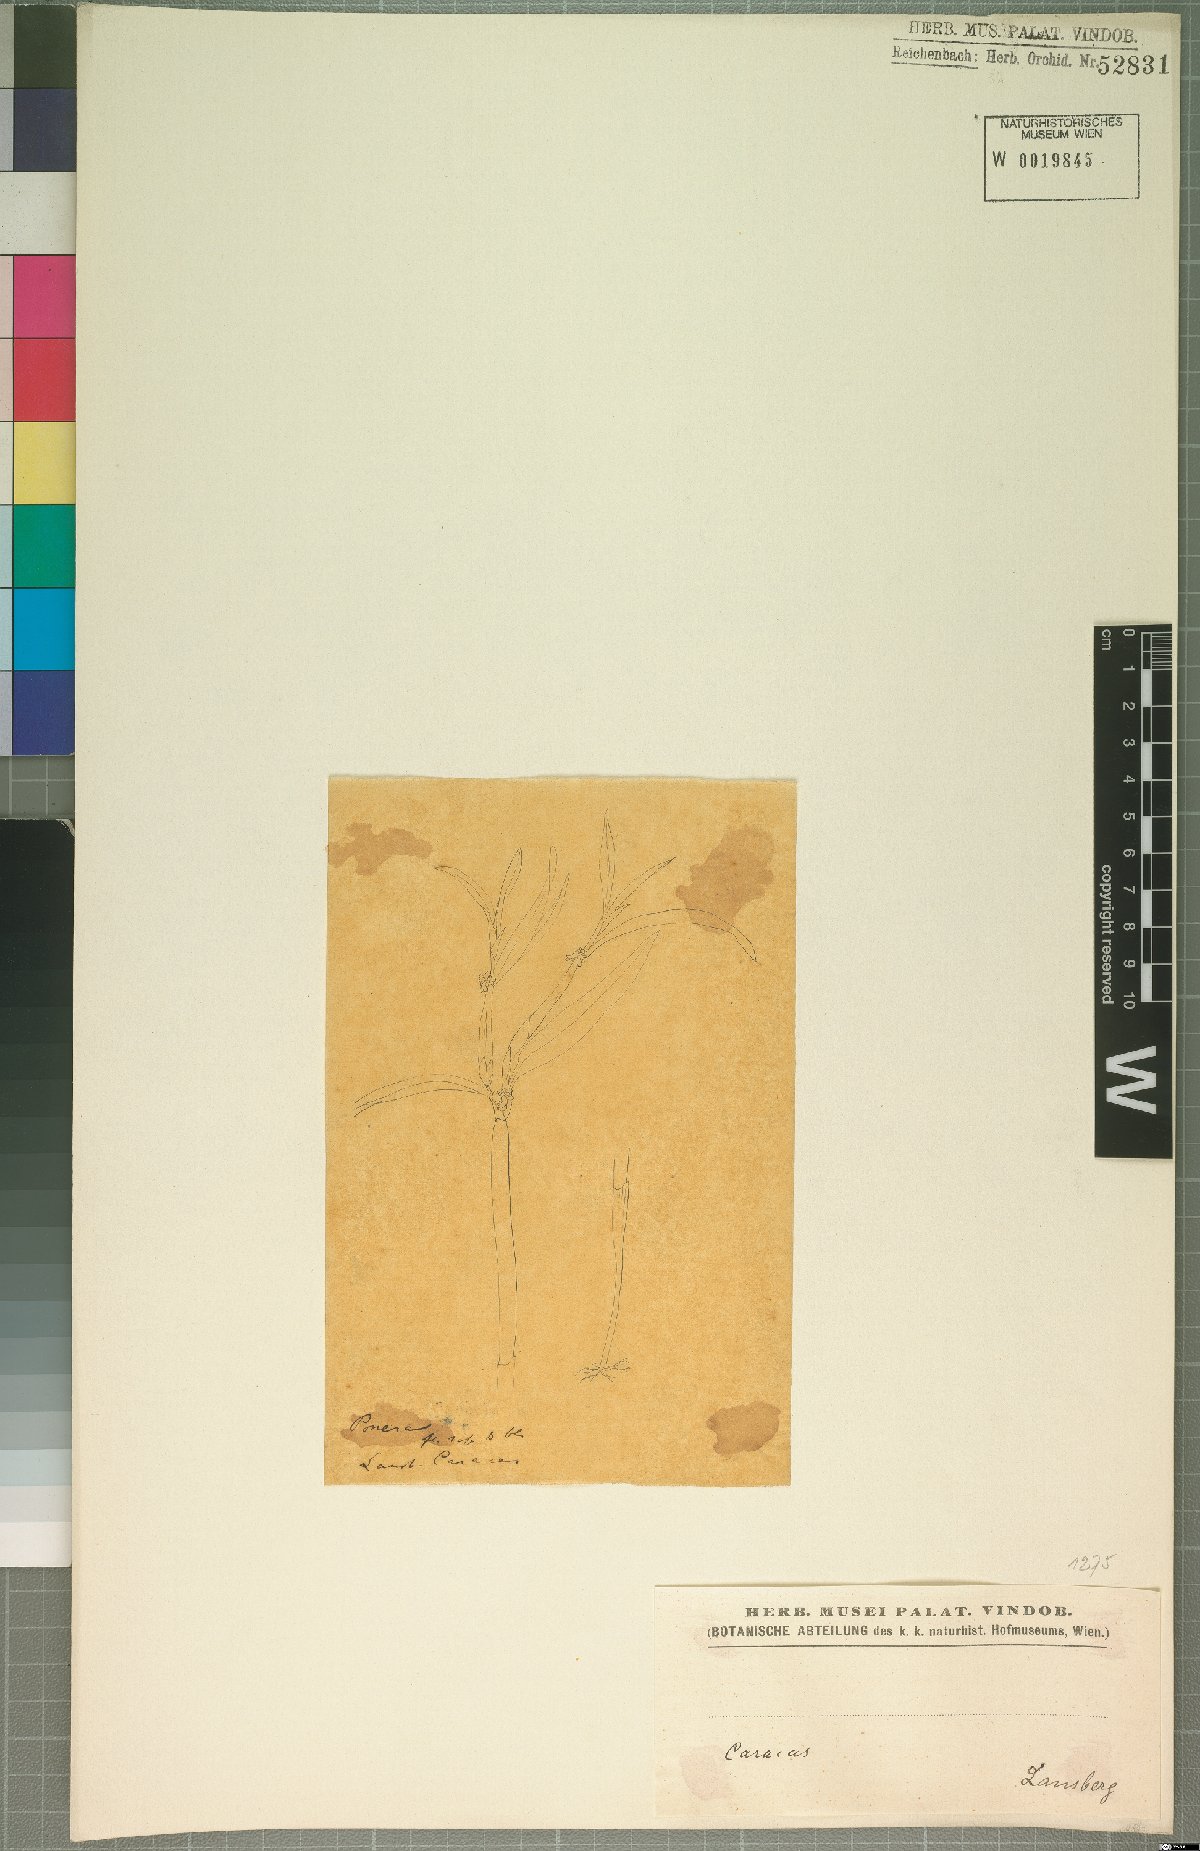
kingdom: Plantae
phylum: Tracheophyta
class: Liliopsida
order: Asparagales
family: Orchidaceae
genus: Ponera
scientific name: Ponera
